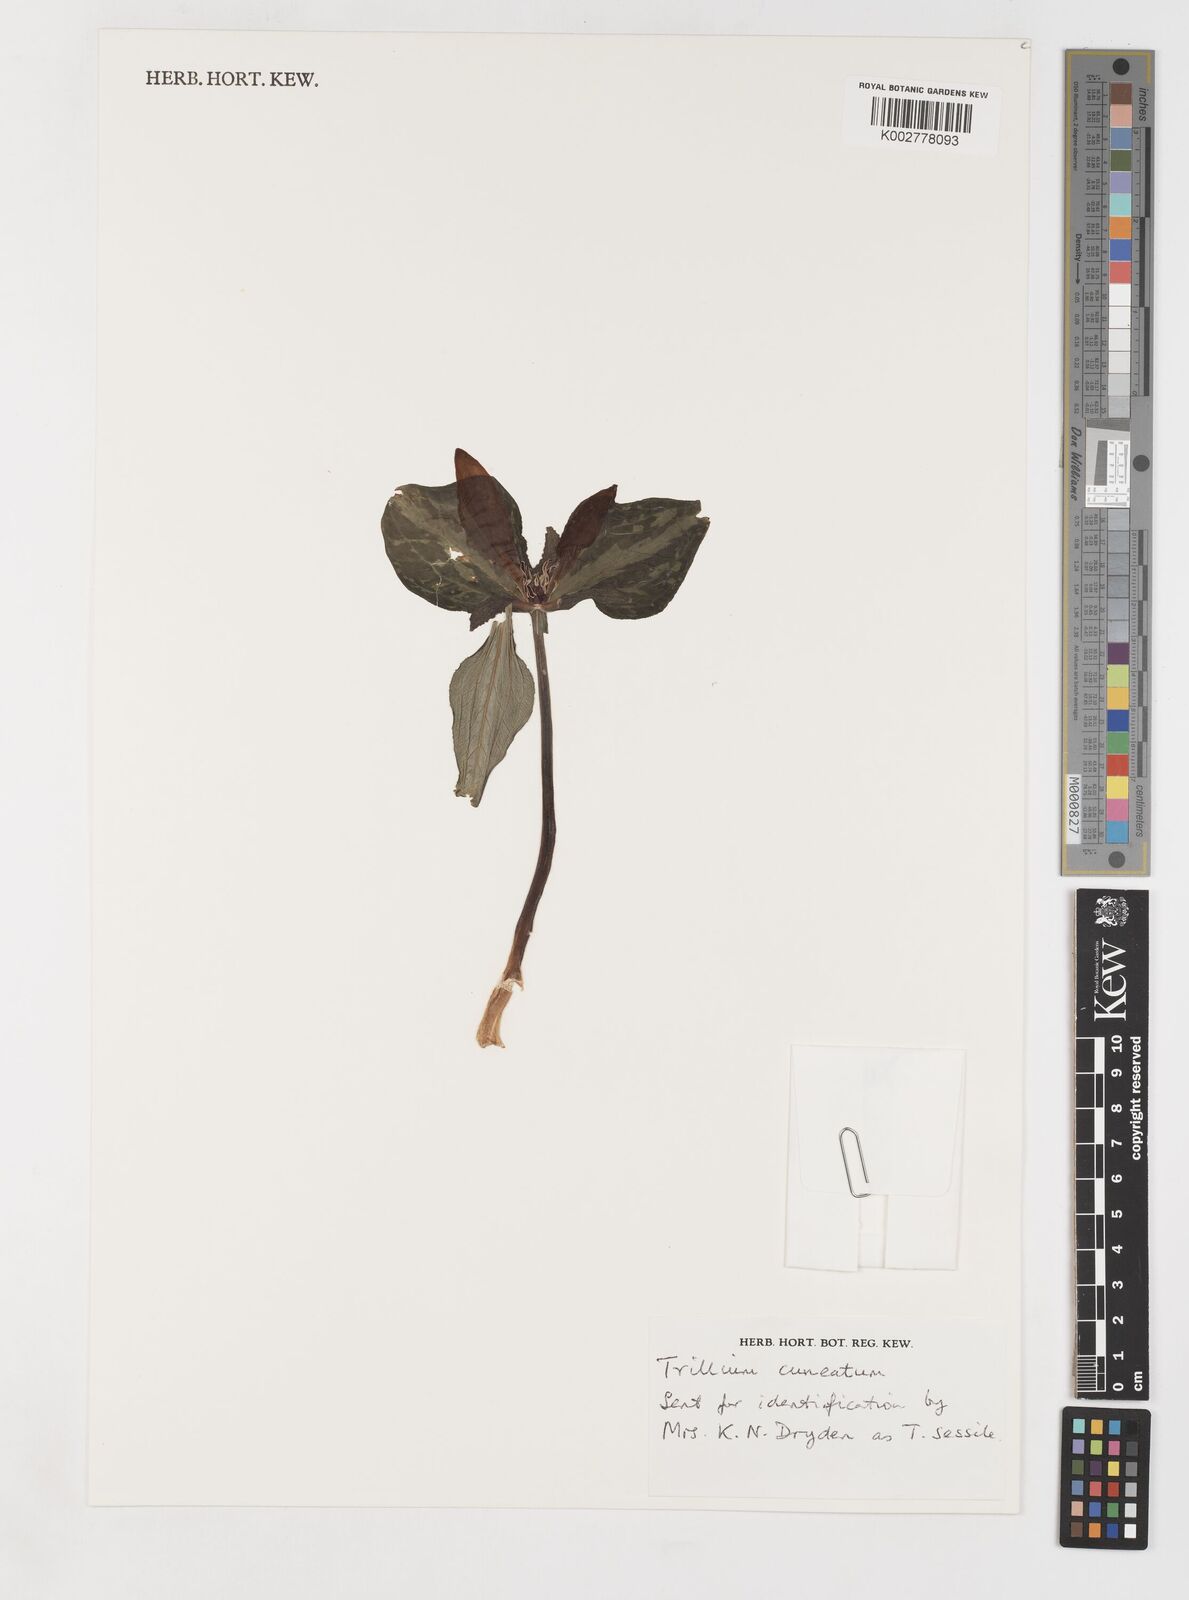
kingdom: Plantae
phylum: Tracheophyta
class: Liliopsida
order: Liliales
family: Melanthiaceae
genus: Trillium
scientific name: Trillium cuneatum
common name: Cuneate trillium
